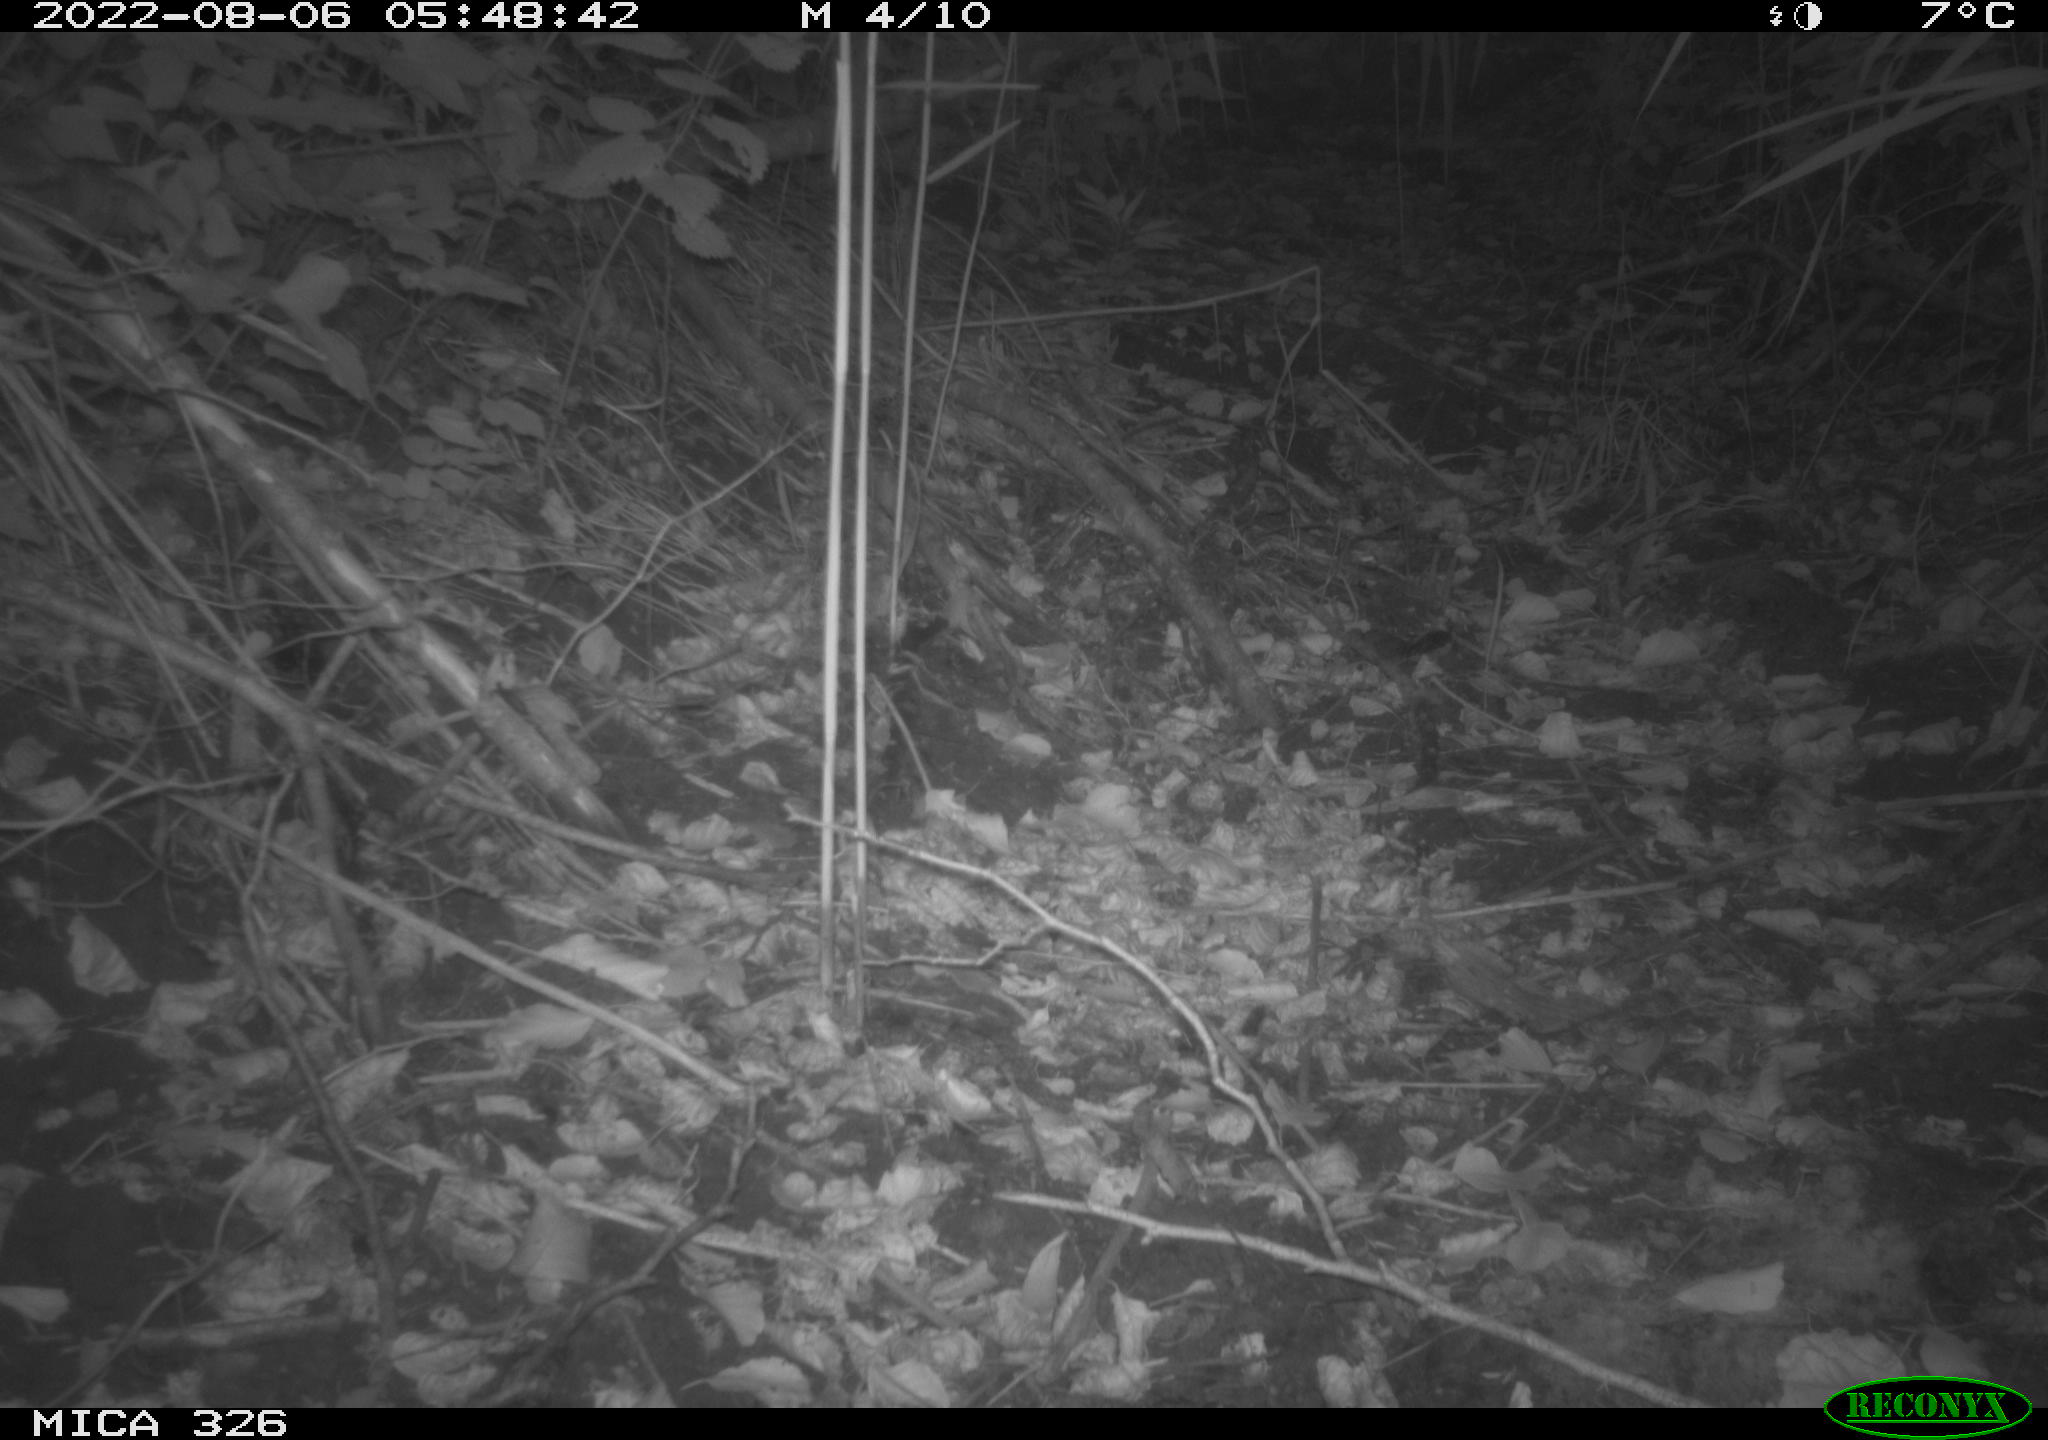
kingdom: Animalia
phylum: Chordata
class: Mammalia
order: Rodentia
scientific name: Rodentia
